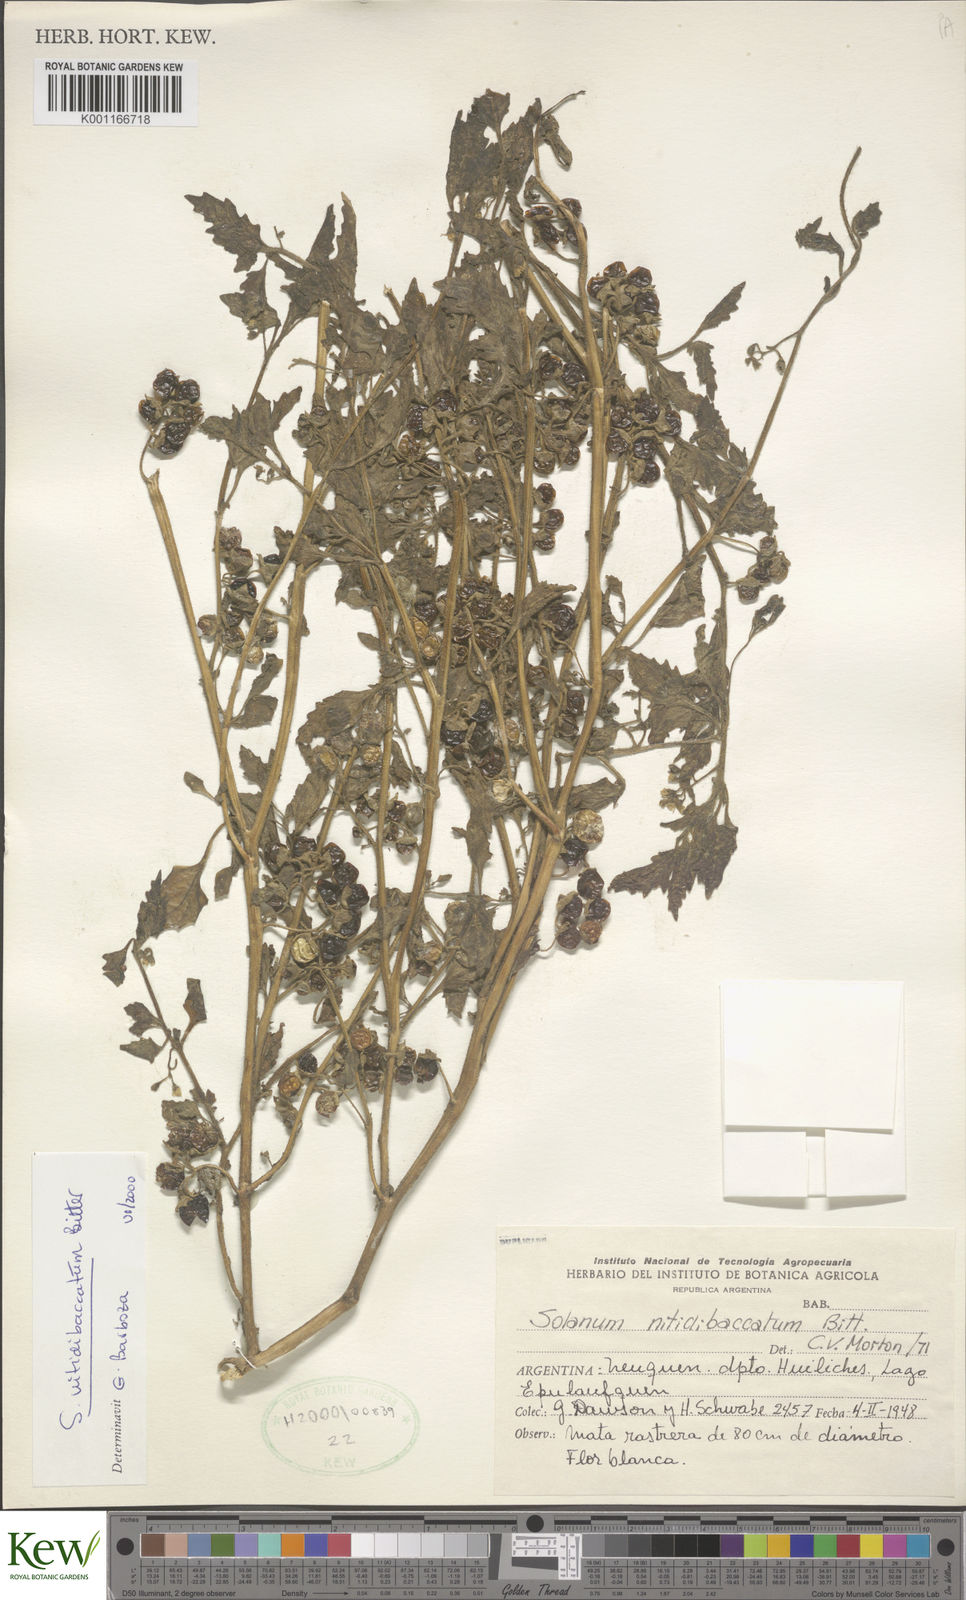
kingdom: Plantae
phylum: Tracheophyta
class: Magnoliopsida
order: Solanales
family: Solanaceae
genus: Solanum
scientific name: Solanum nitidibaccatum
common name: Hairy nightshade
